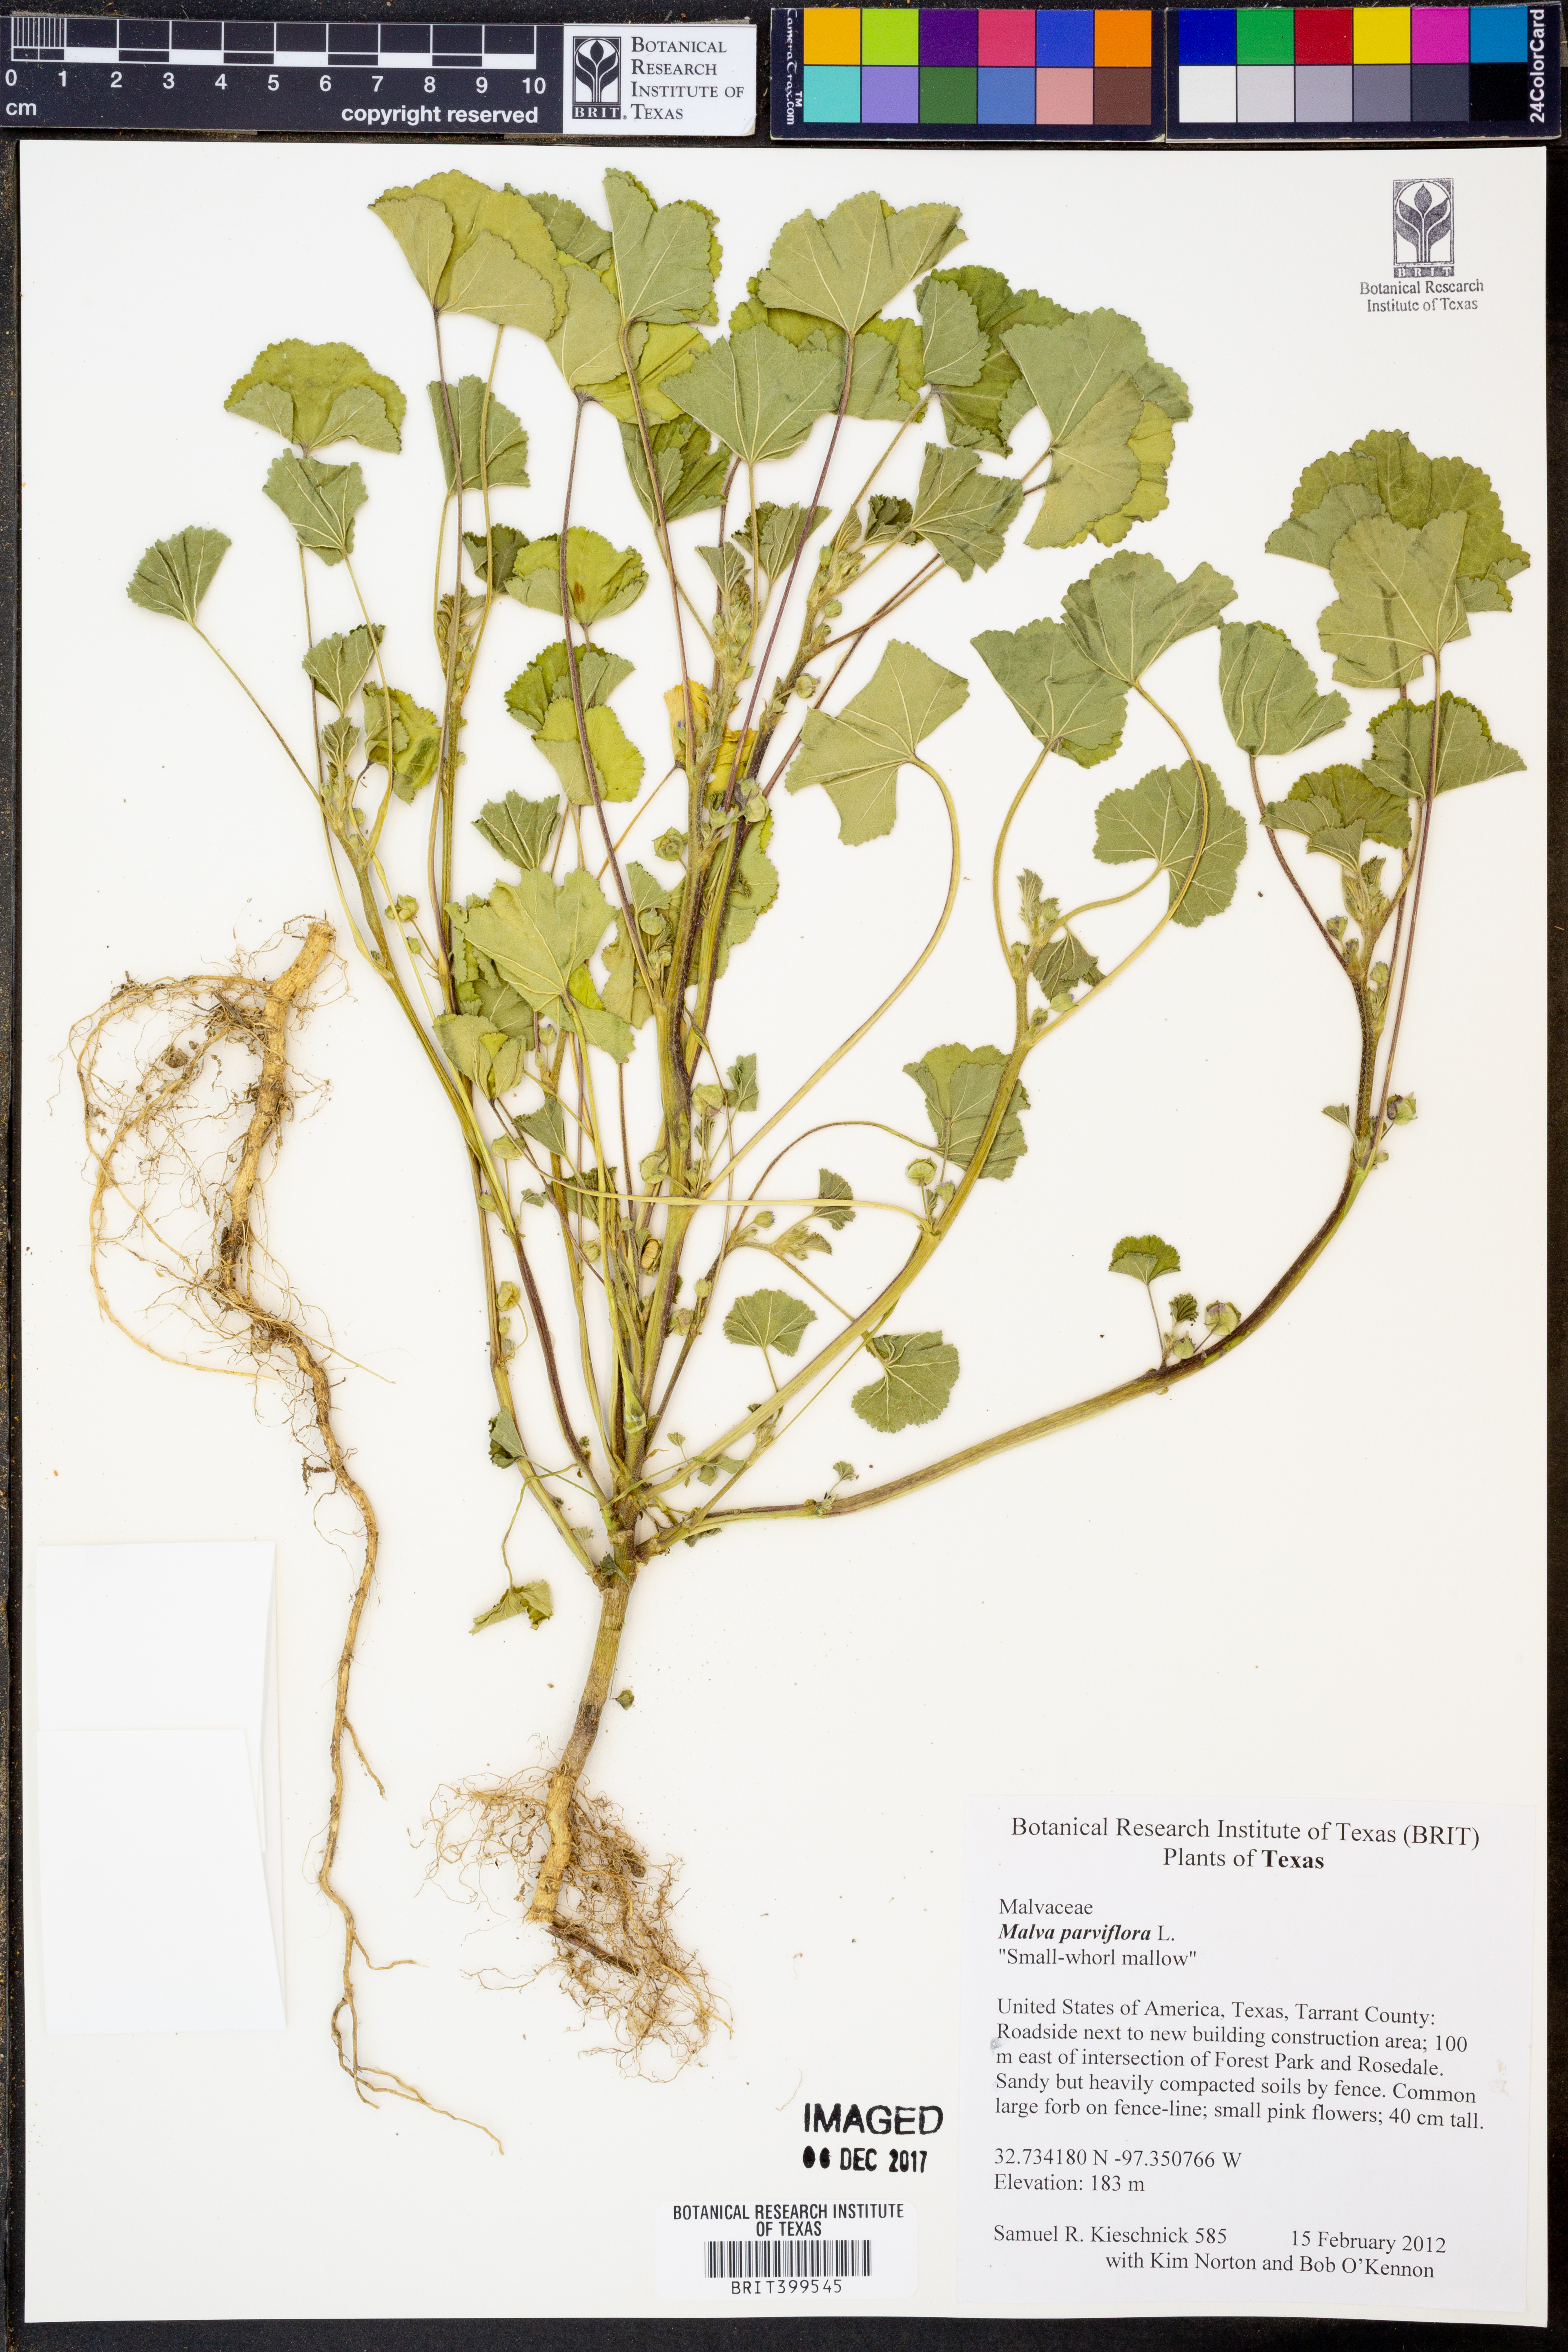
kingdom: Plantae
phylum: Tracheophyta
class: Magnoliopsida
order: Malvales
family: Malvaceae
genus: Malva
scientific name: Malva parviflora
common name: Least mallow
